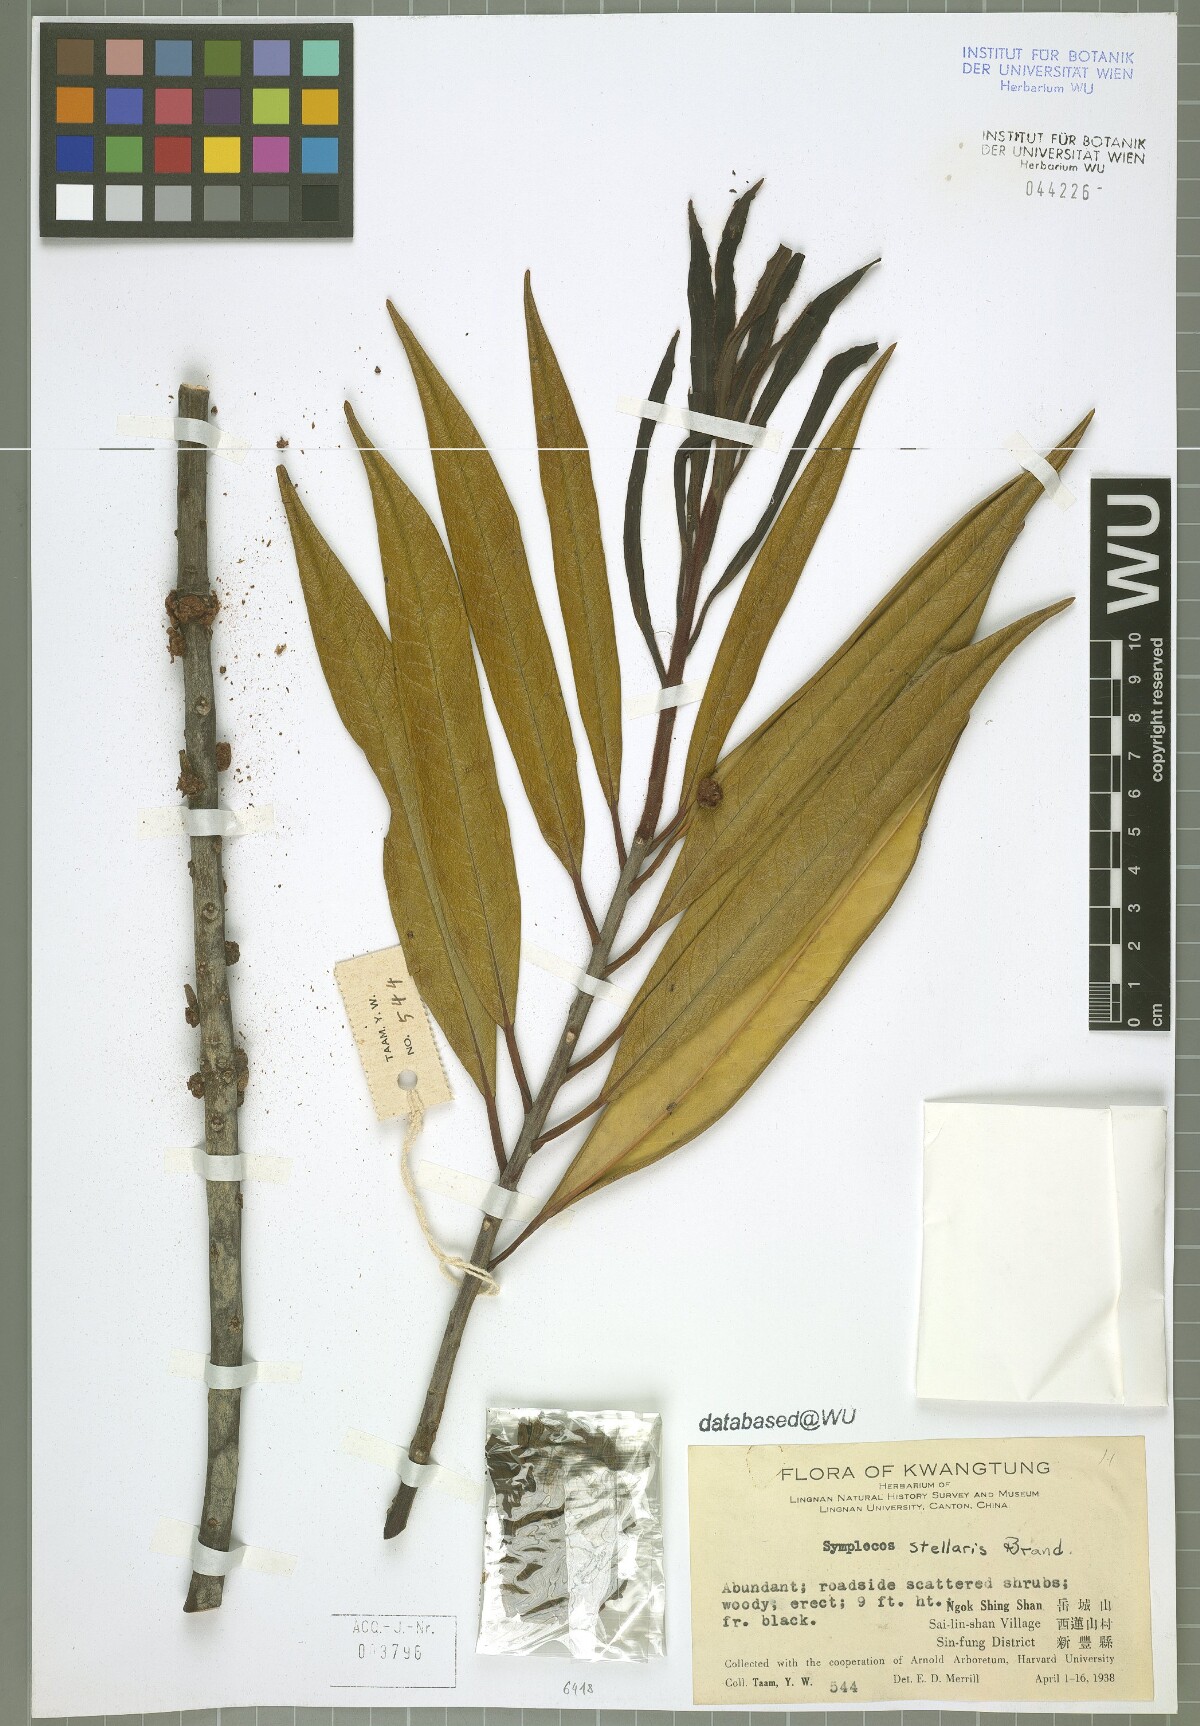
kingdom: Plantae
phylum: Tracheophyta
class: Magnoliopsida
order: Ericales
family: Symplocaceae
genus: Symplocos
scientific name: Symplocos stellaris
